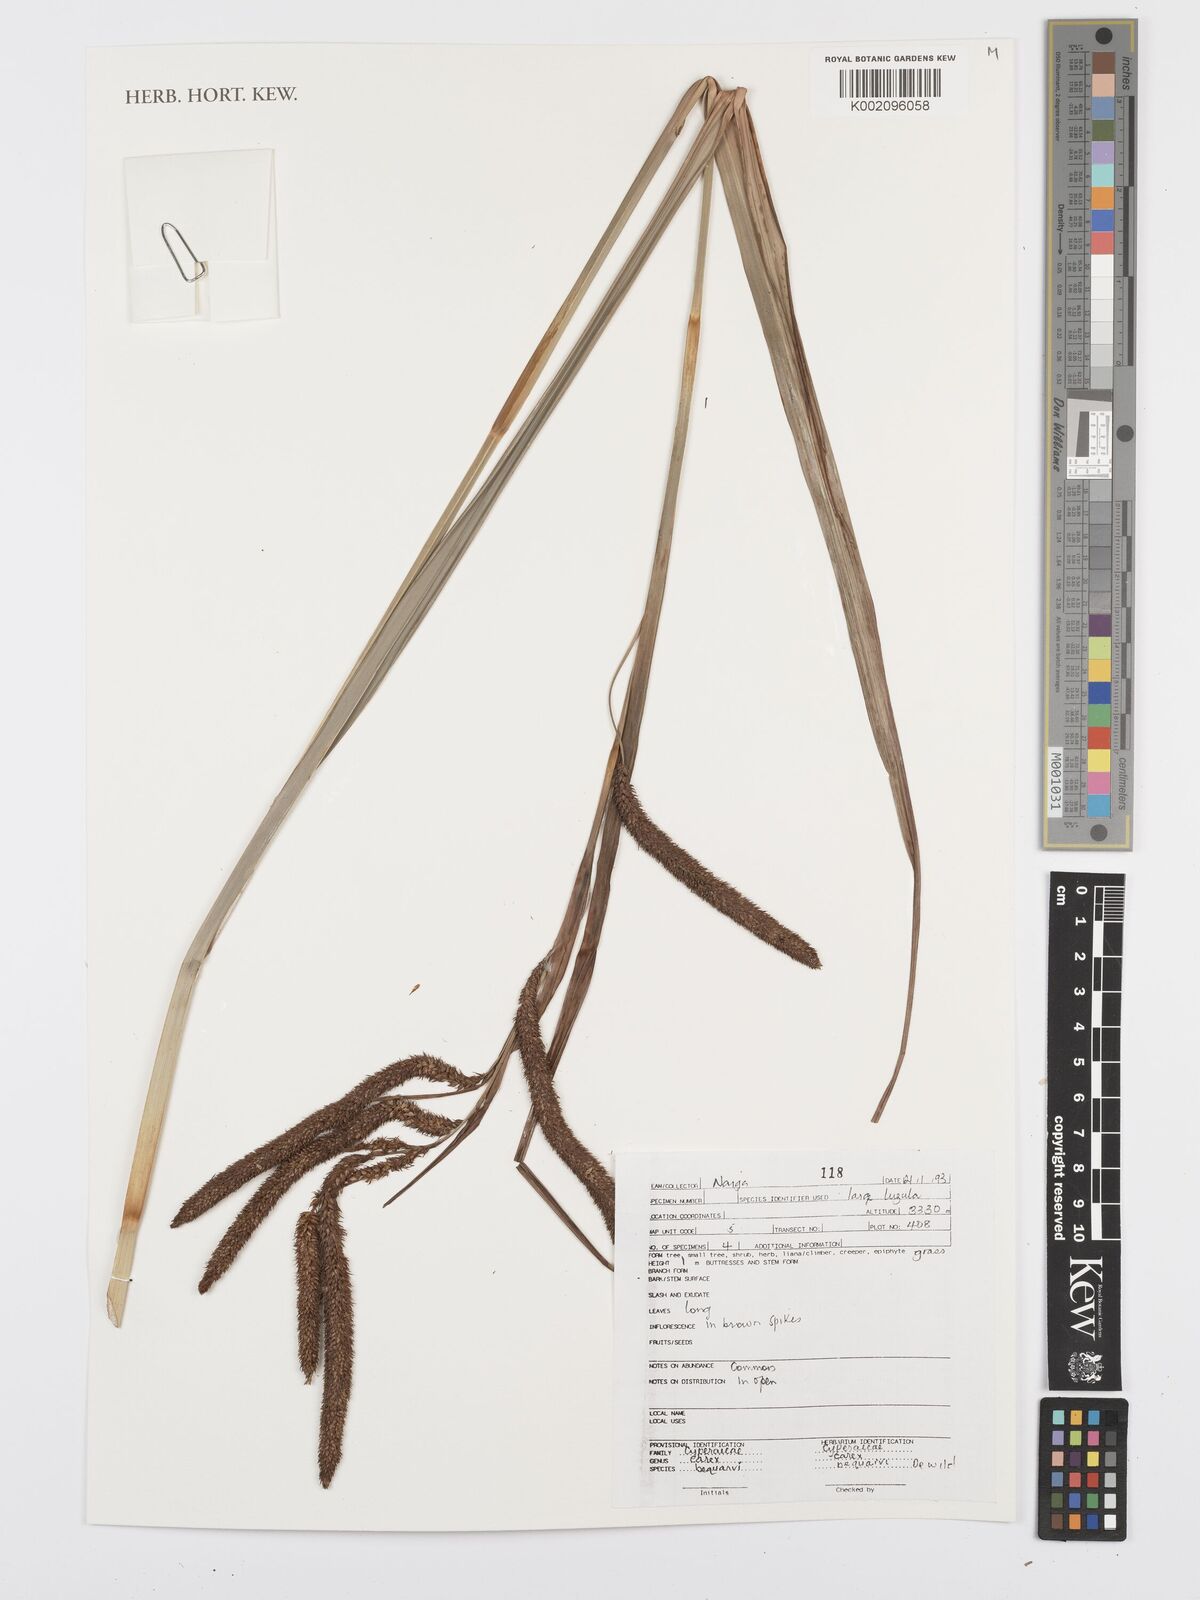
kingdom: Plantae
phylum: Tracheophyta
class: Liliopsida
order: Poales
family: Cyperaceae
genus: Carex
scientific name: Carex bequaertii
